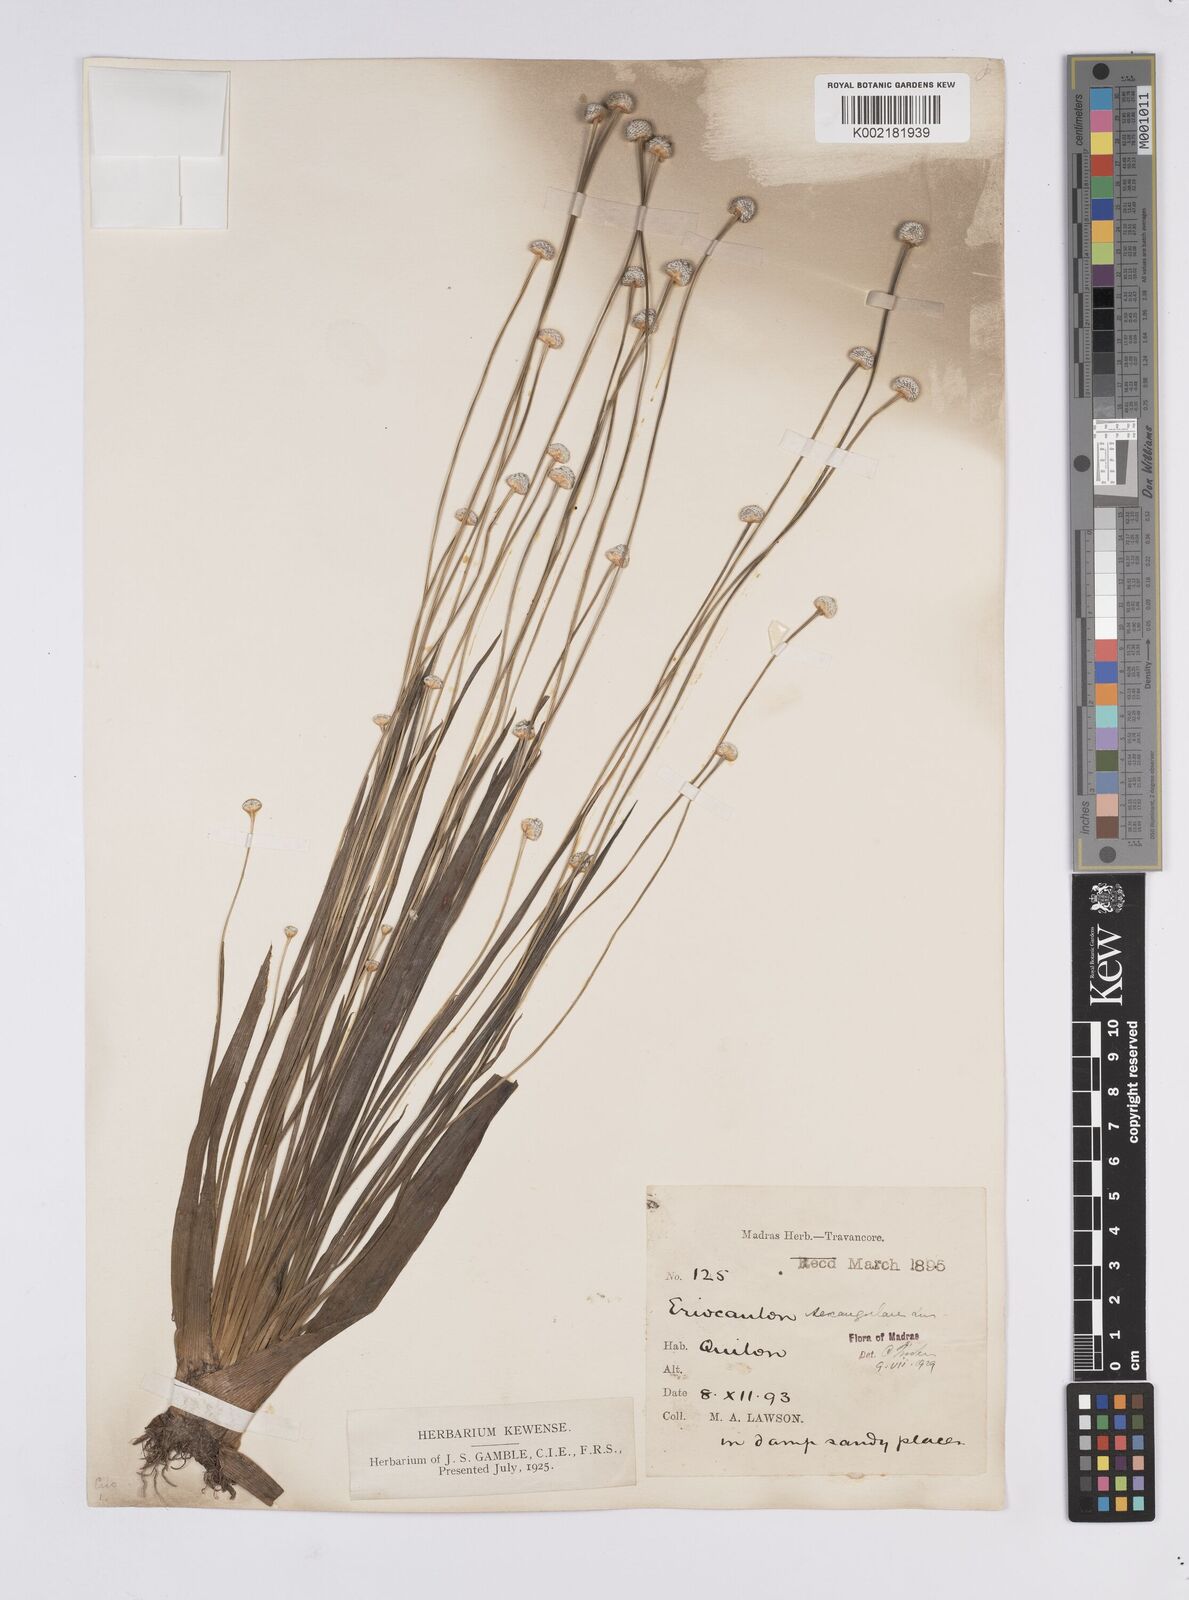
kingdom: Plantae
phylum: Tracheophyta
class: Liliopsida
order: Poales
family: Eriocaulaceae
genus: Eriocaulon
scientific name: Eriocaulon sexangulare
